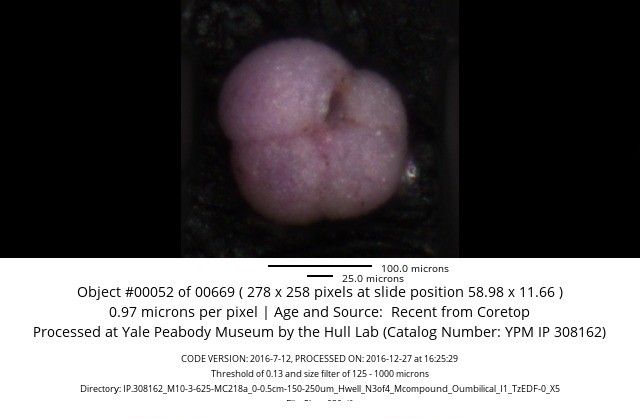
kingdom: Chromista
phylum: Foraminifera
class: Globothalamea
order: Rotaliida
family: Globorotaliidae
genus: Neogloboquadrina
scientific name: Neogloboquadrina pachyderma
